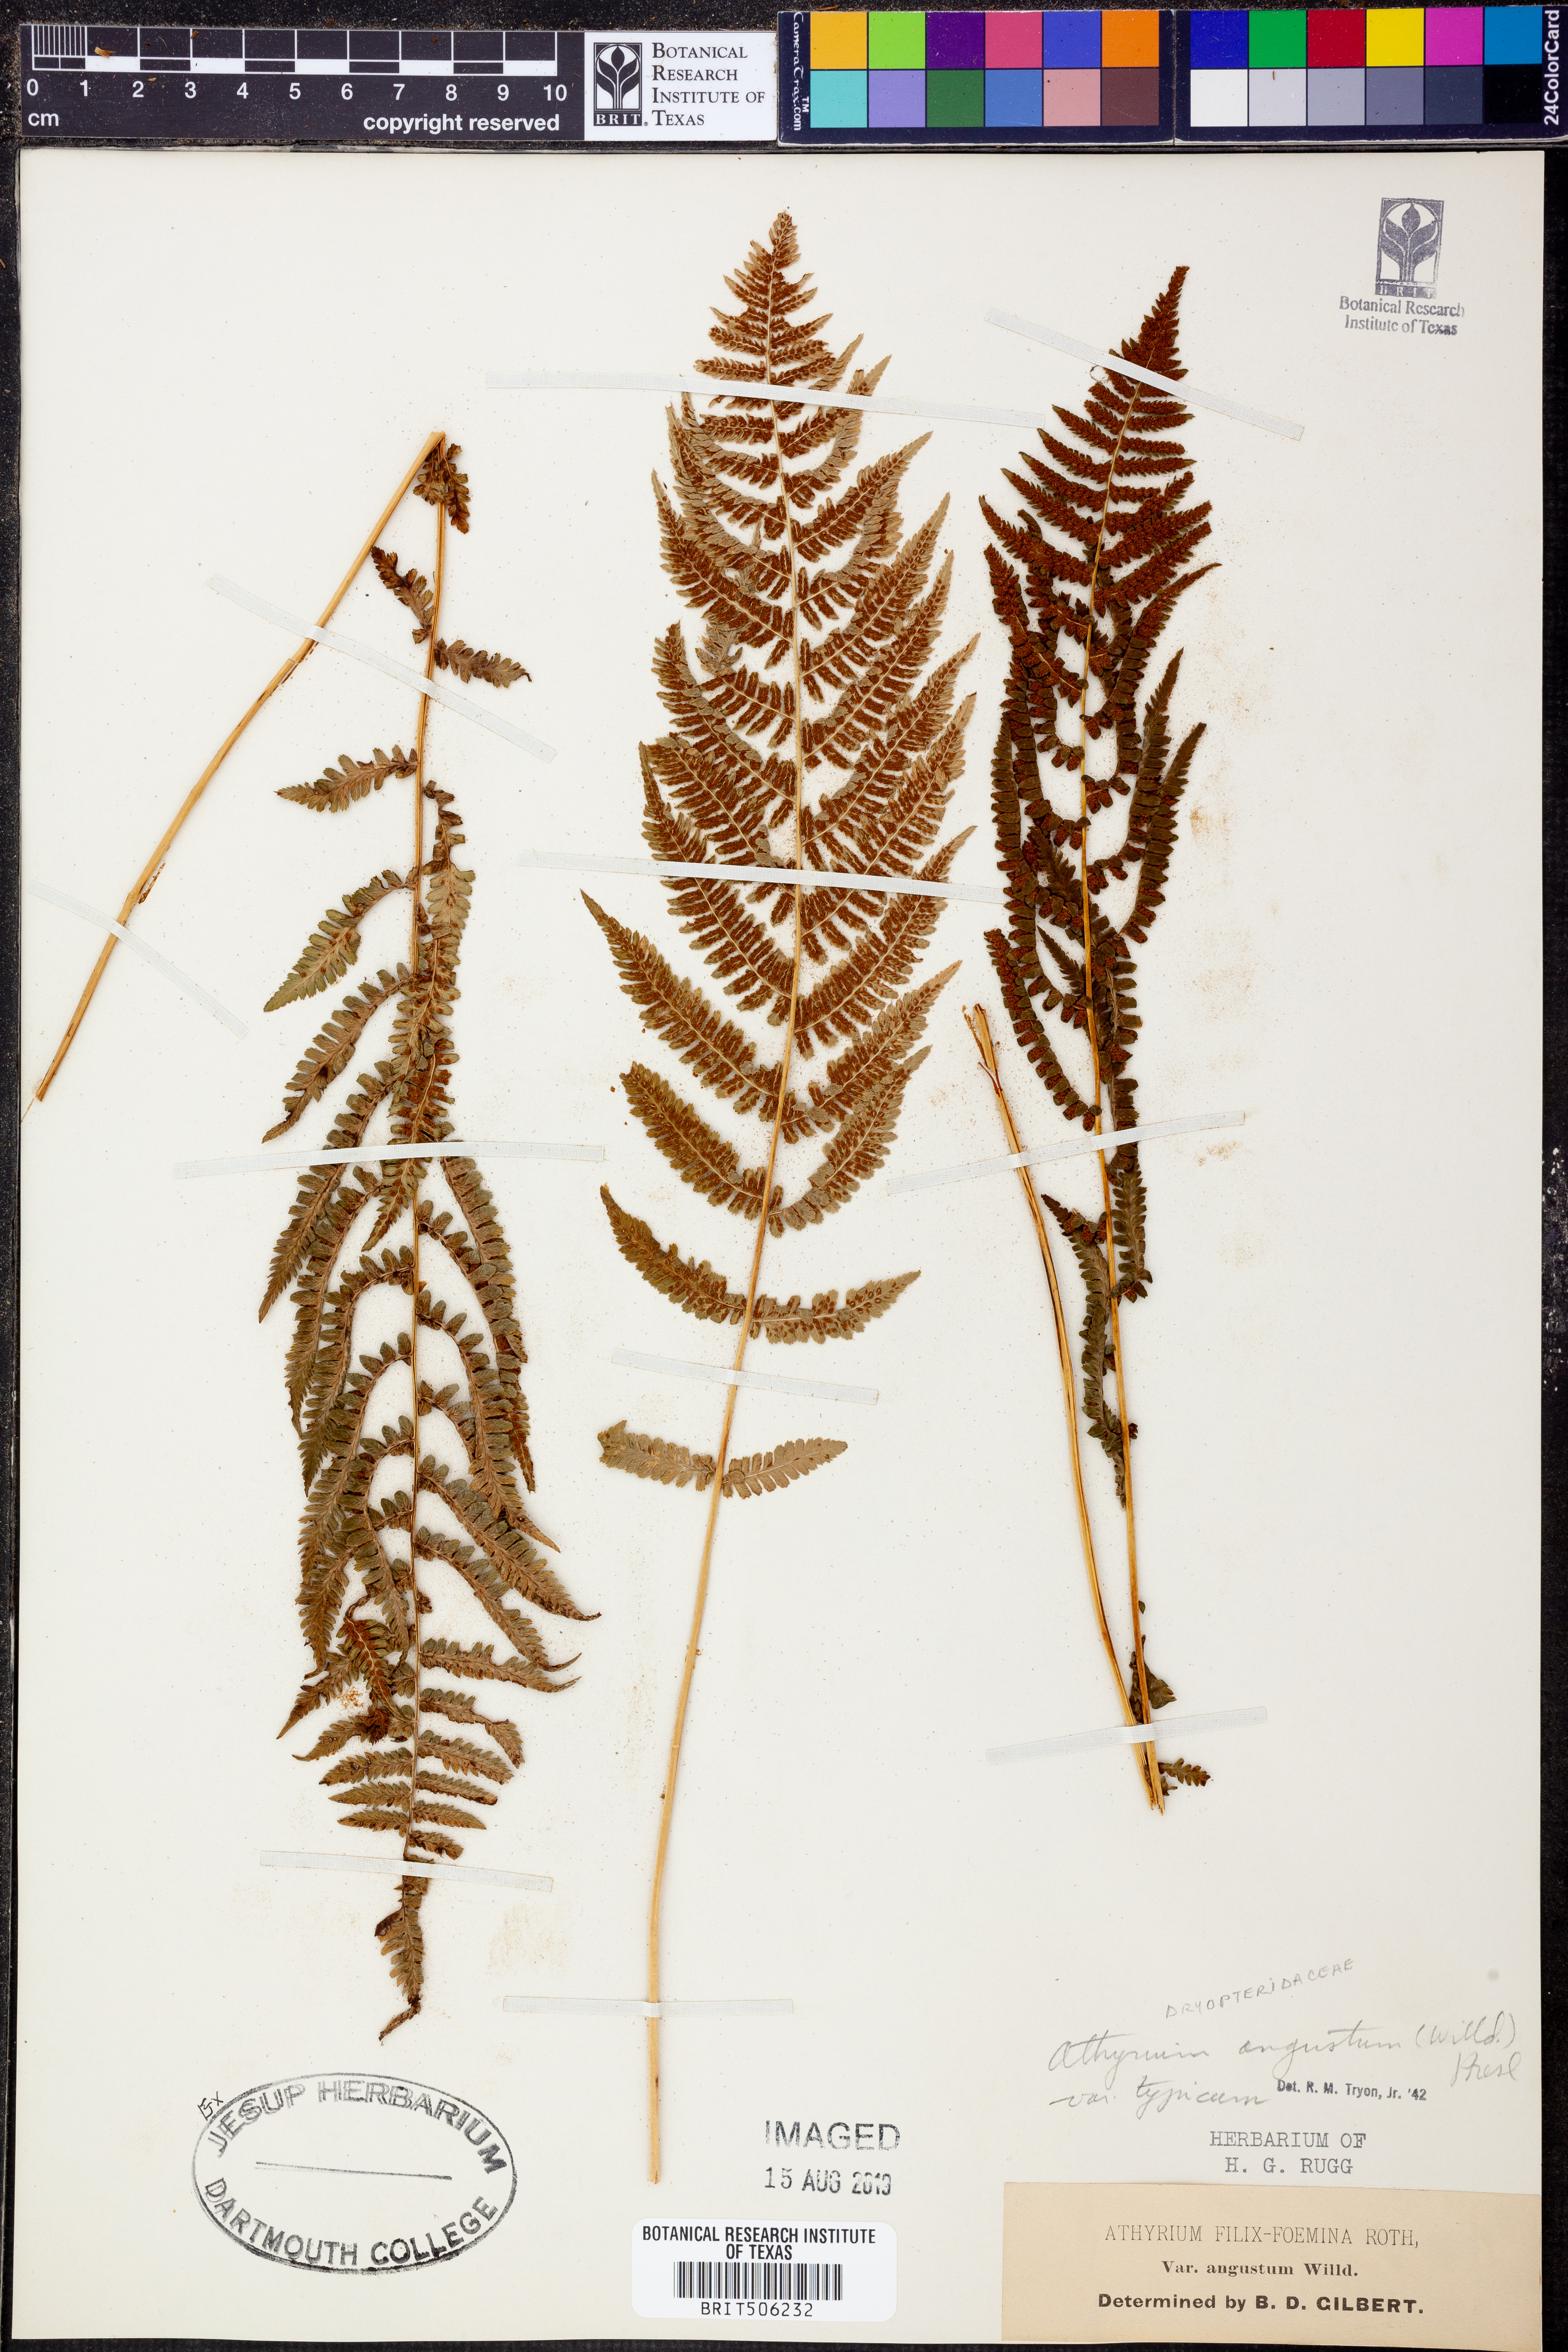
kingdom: Plantae
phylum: Tracheophyta
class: Polypodiopsida
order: Polypodiales
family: Athyriaceae
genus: Athyrium
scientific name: Athyrium angustum
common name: Northern lady fern
